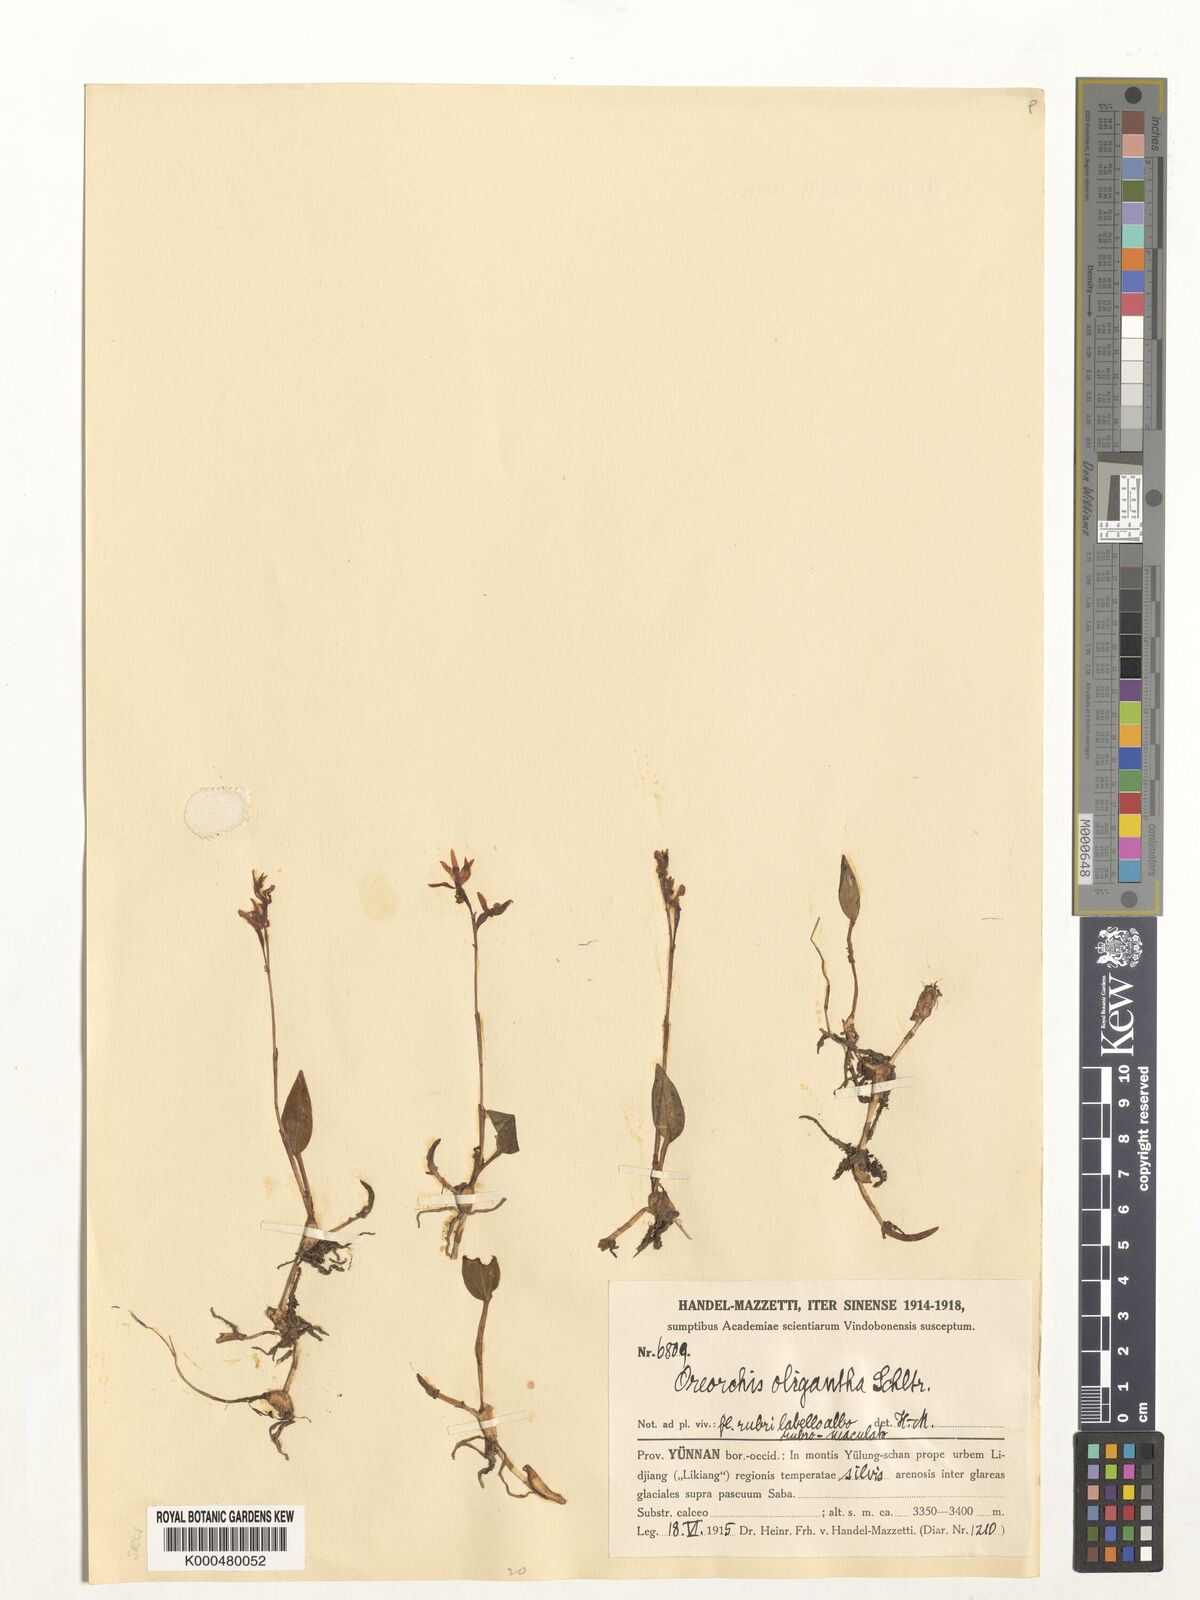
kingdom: Plantae
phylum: Tracheophyta
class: Liliopsida
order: Asparagales
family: Orchidaceae
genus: Oreorchis
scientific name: Oreorchis oligantha
